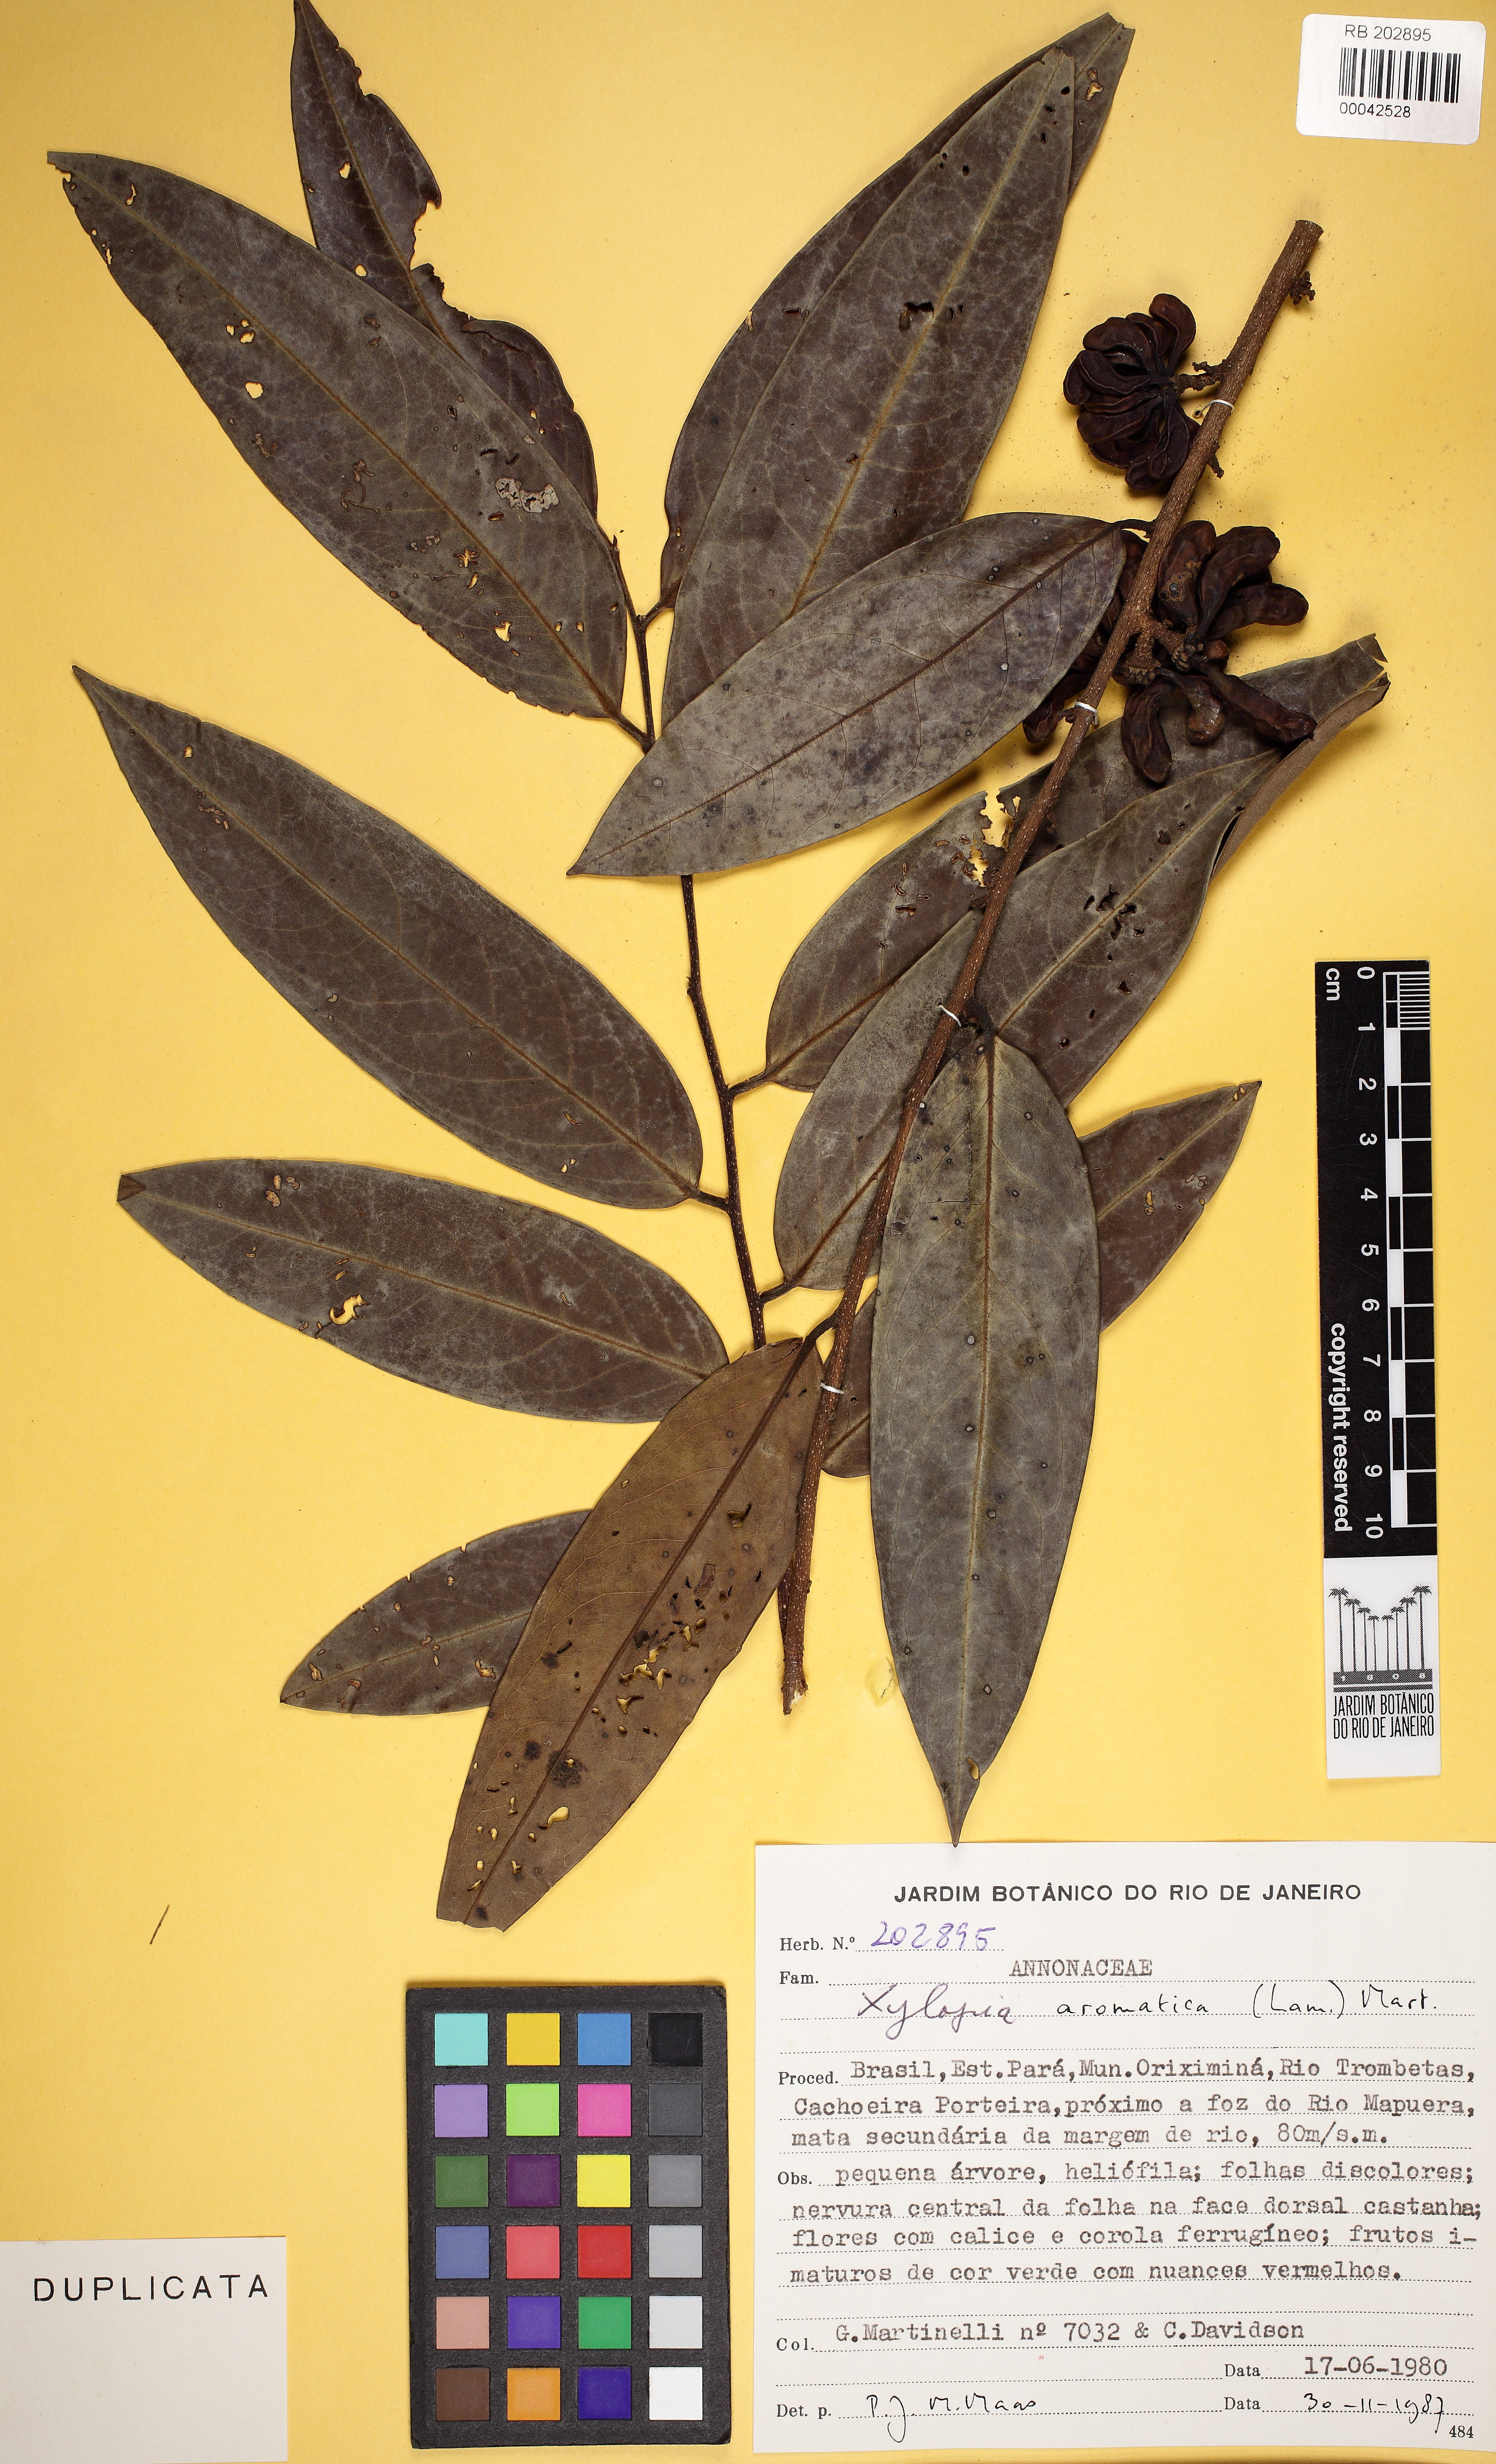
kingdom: Plantae
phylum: Tracheophyta
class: Magnoliopsida
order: Magnoliales
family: Annonaceae
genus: Xylopia
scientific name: Xylopia aromatica
